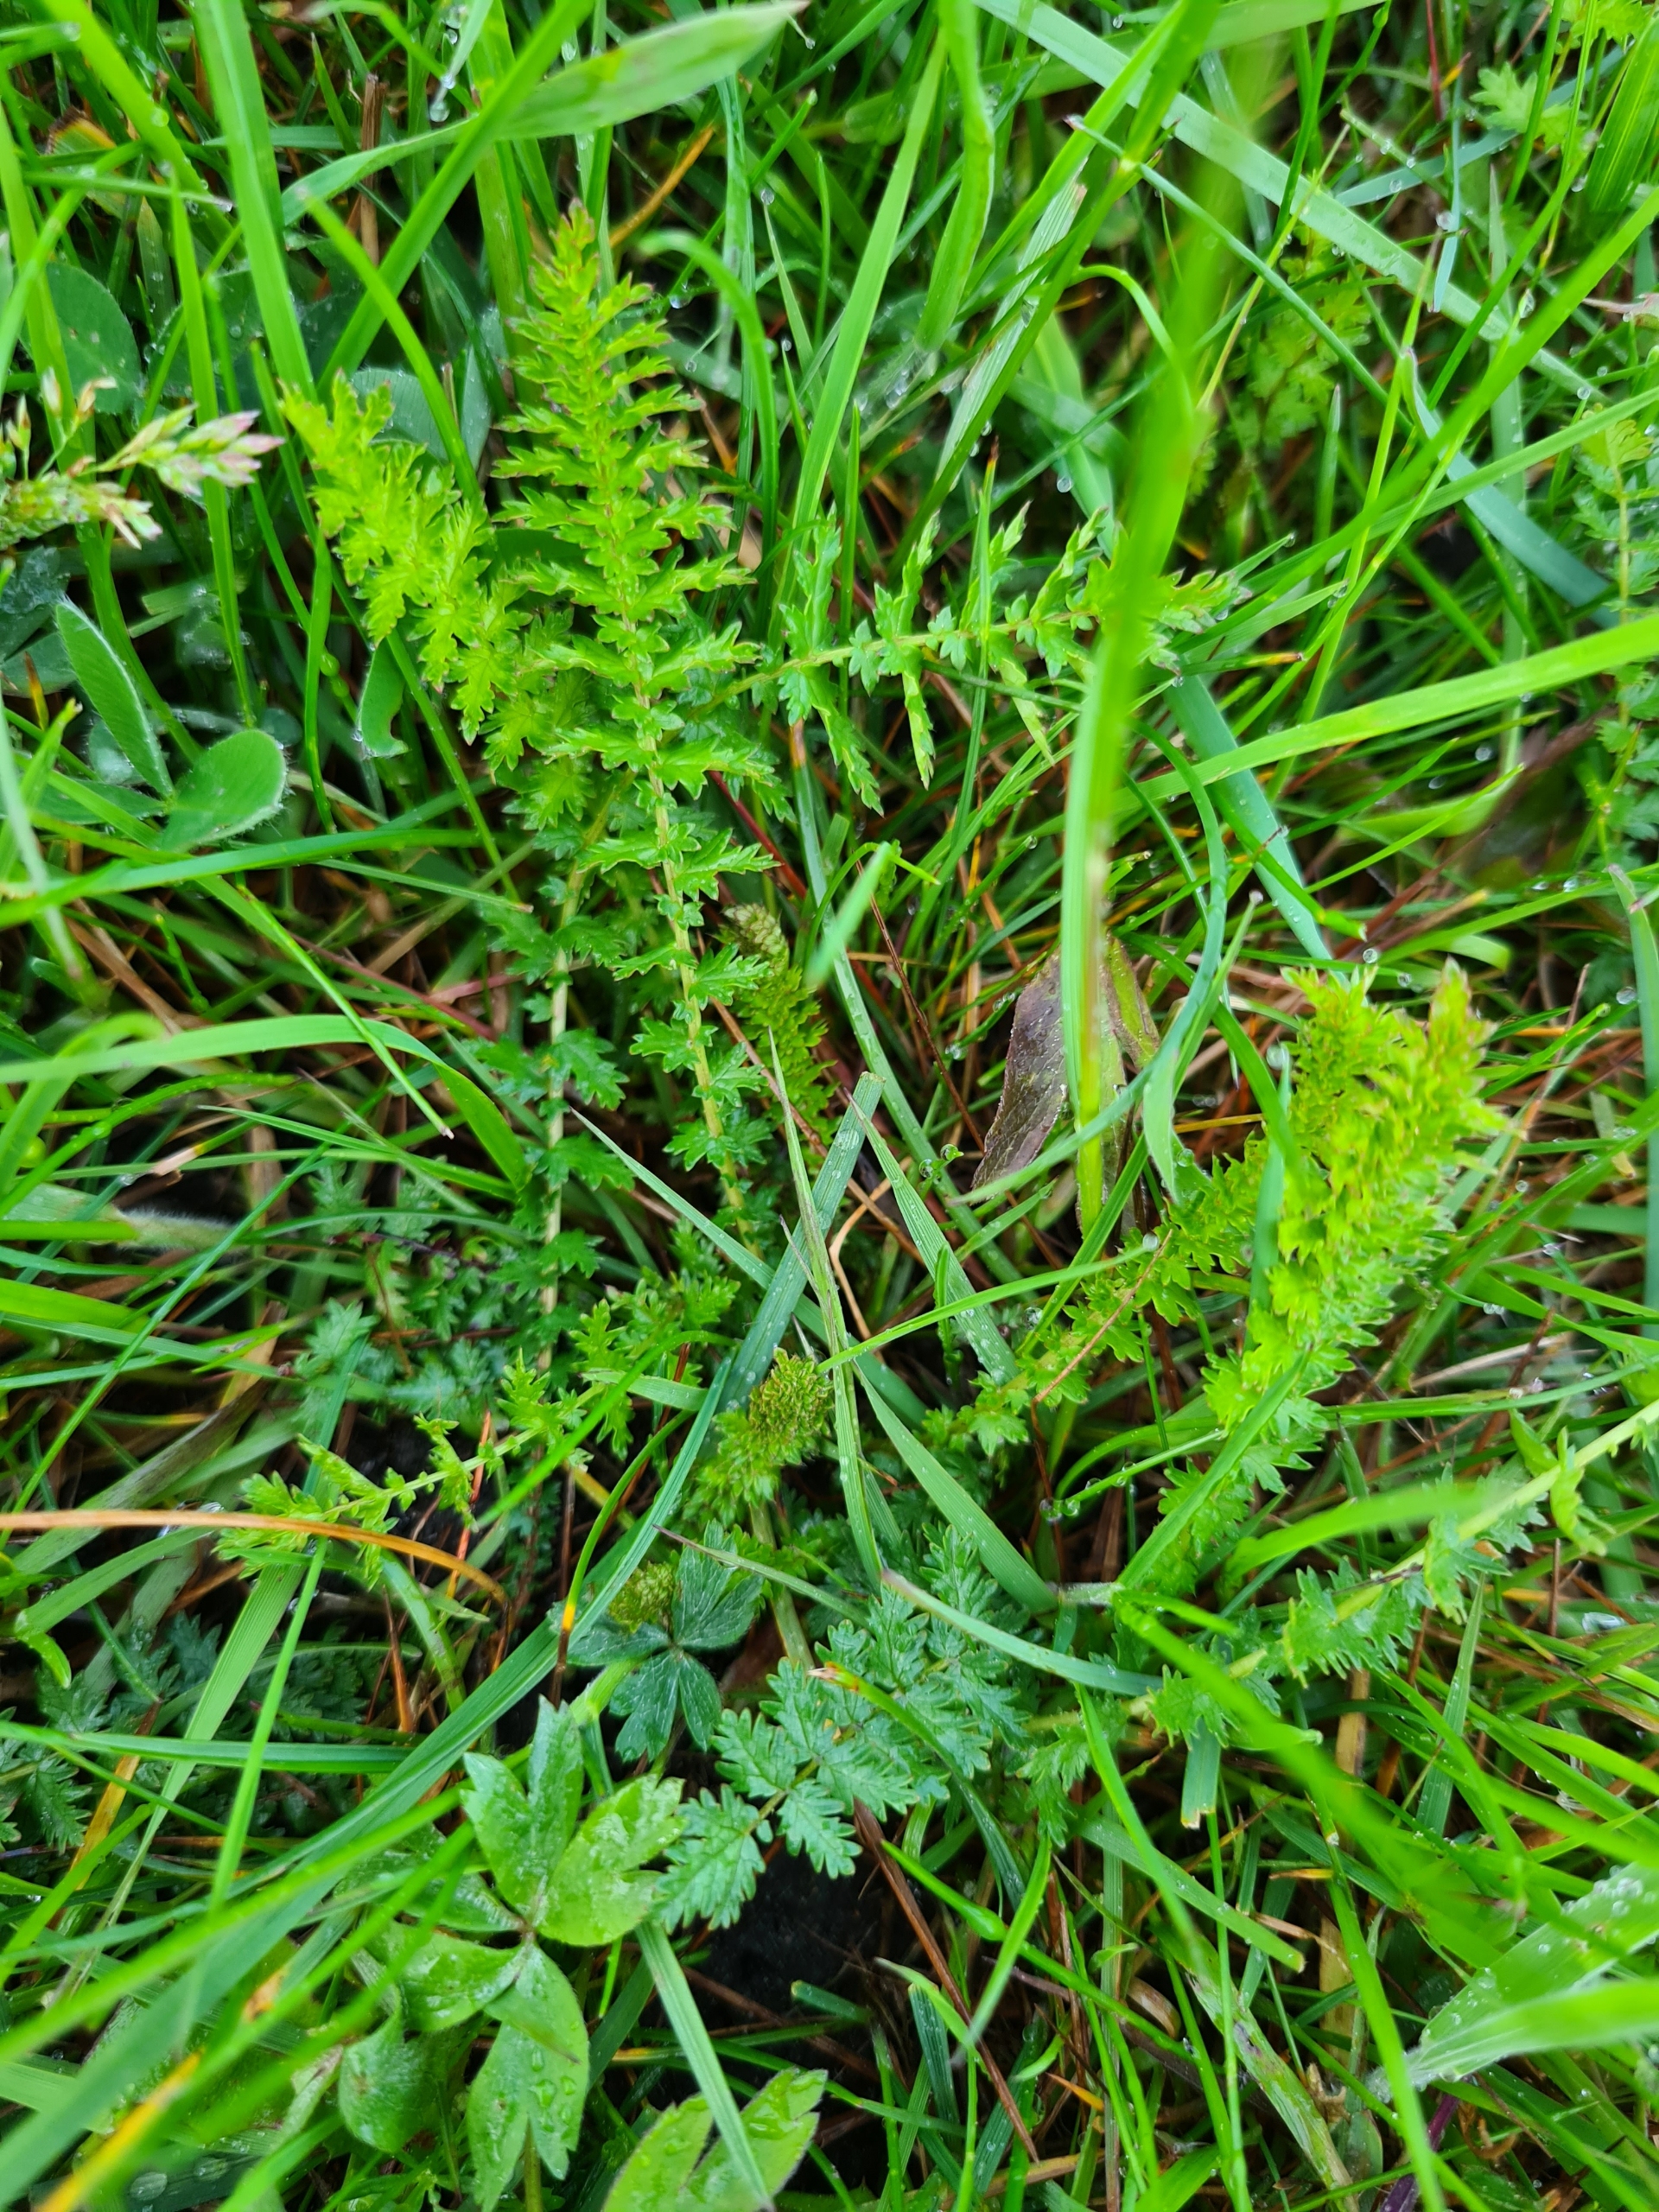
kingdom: Plantae
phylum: Tracheophyta
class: Magnoliopsida
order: Rosales
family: Rosaceae
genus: Filipendula
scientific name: Filipendula vulgaris
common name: Knoldet mjødurt
